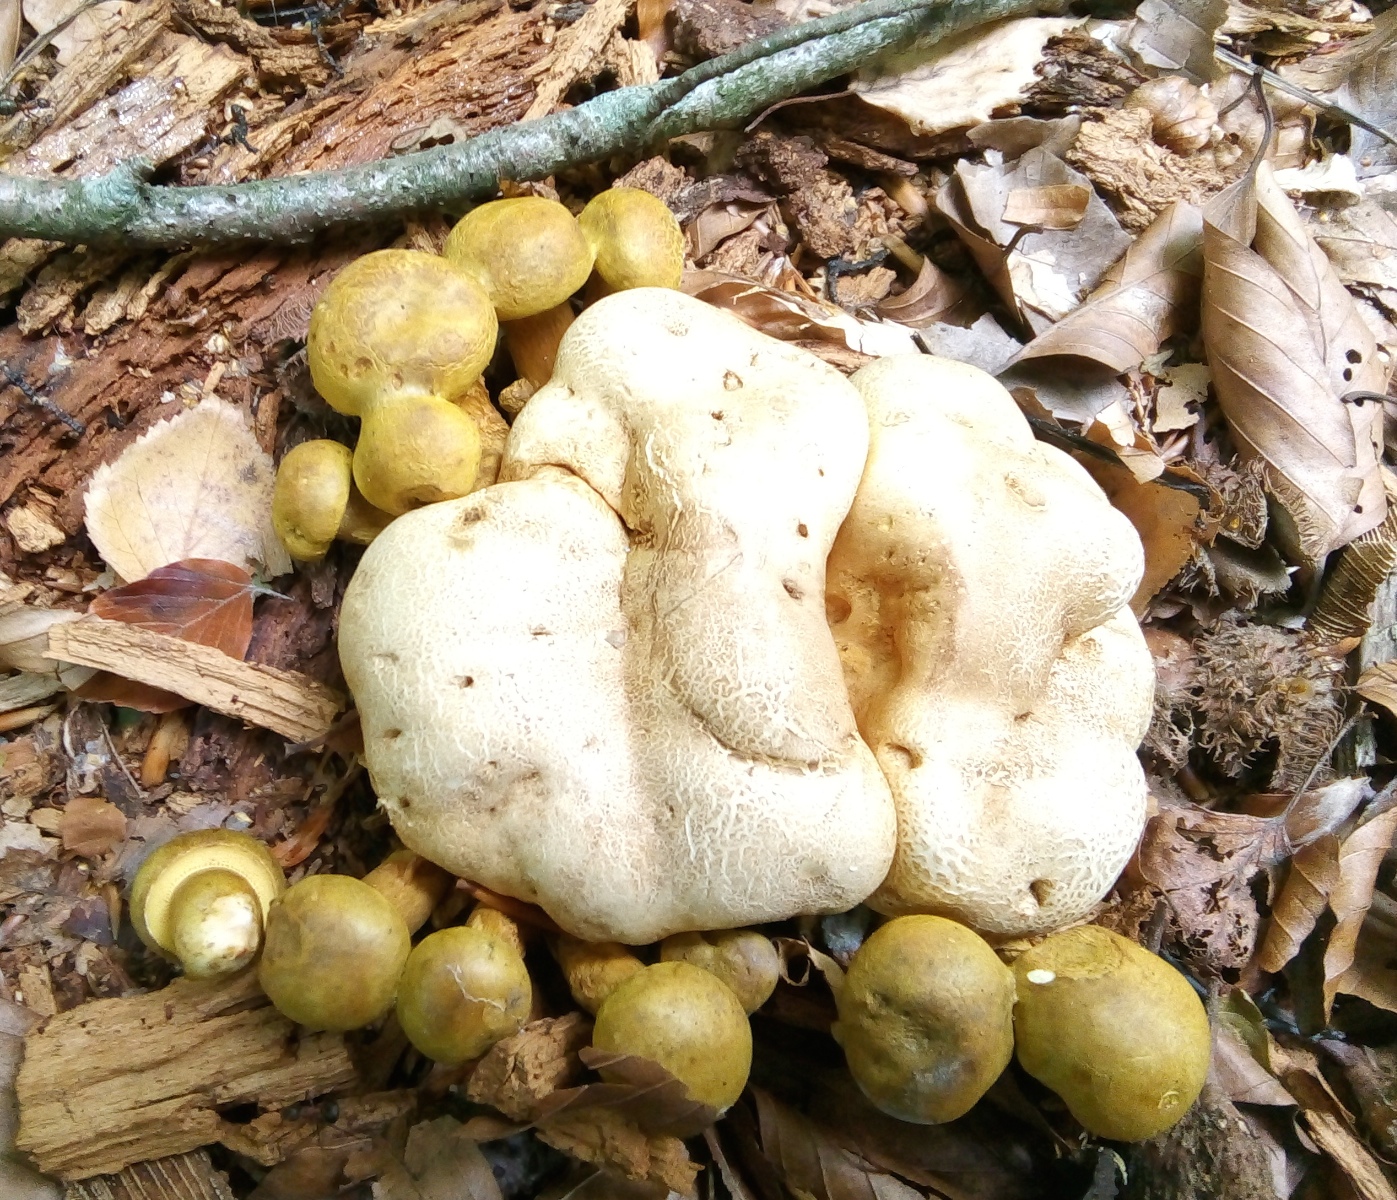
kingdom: Fungi
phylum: Basidiomycota
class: Agaricomycetes
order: Boletales
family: Boletaceae
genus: Pseudoboletus
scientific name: Pseudoboletus parasiticus
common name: snyltende rørhat
